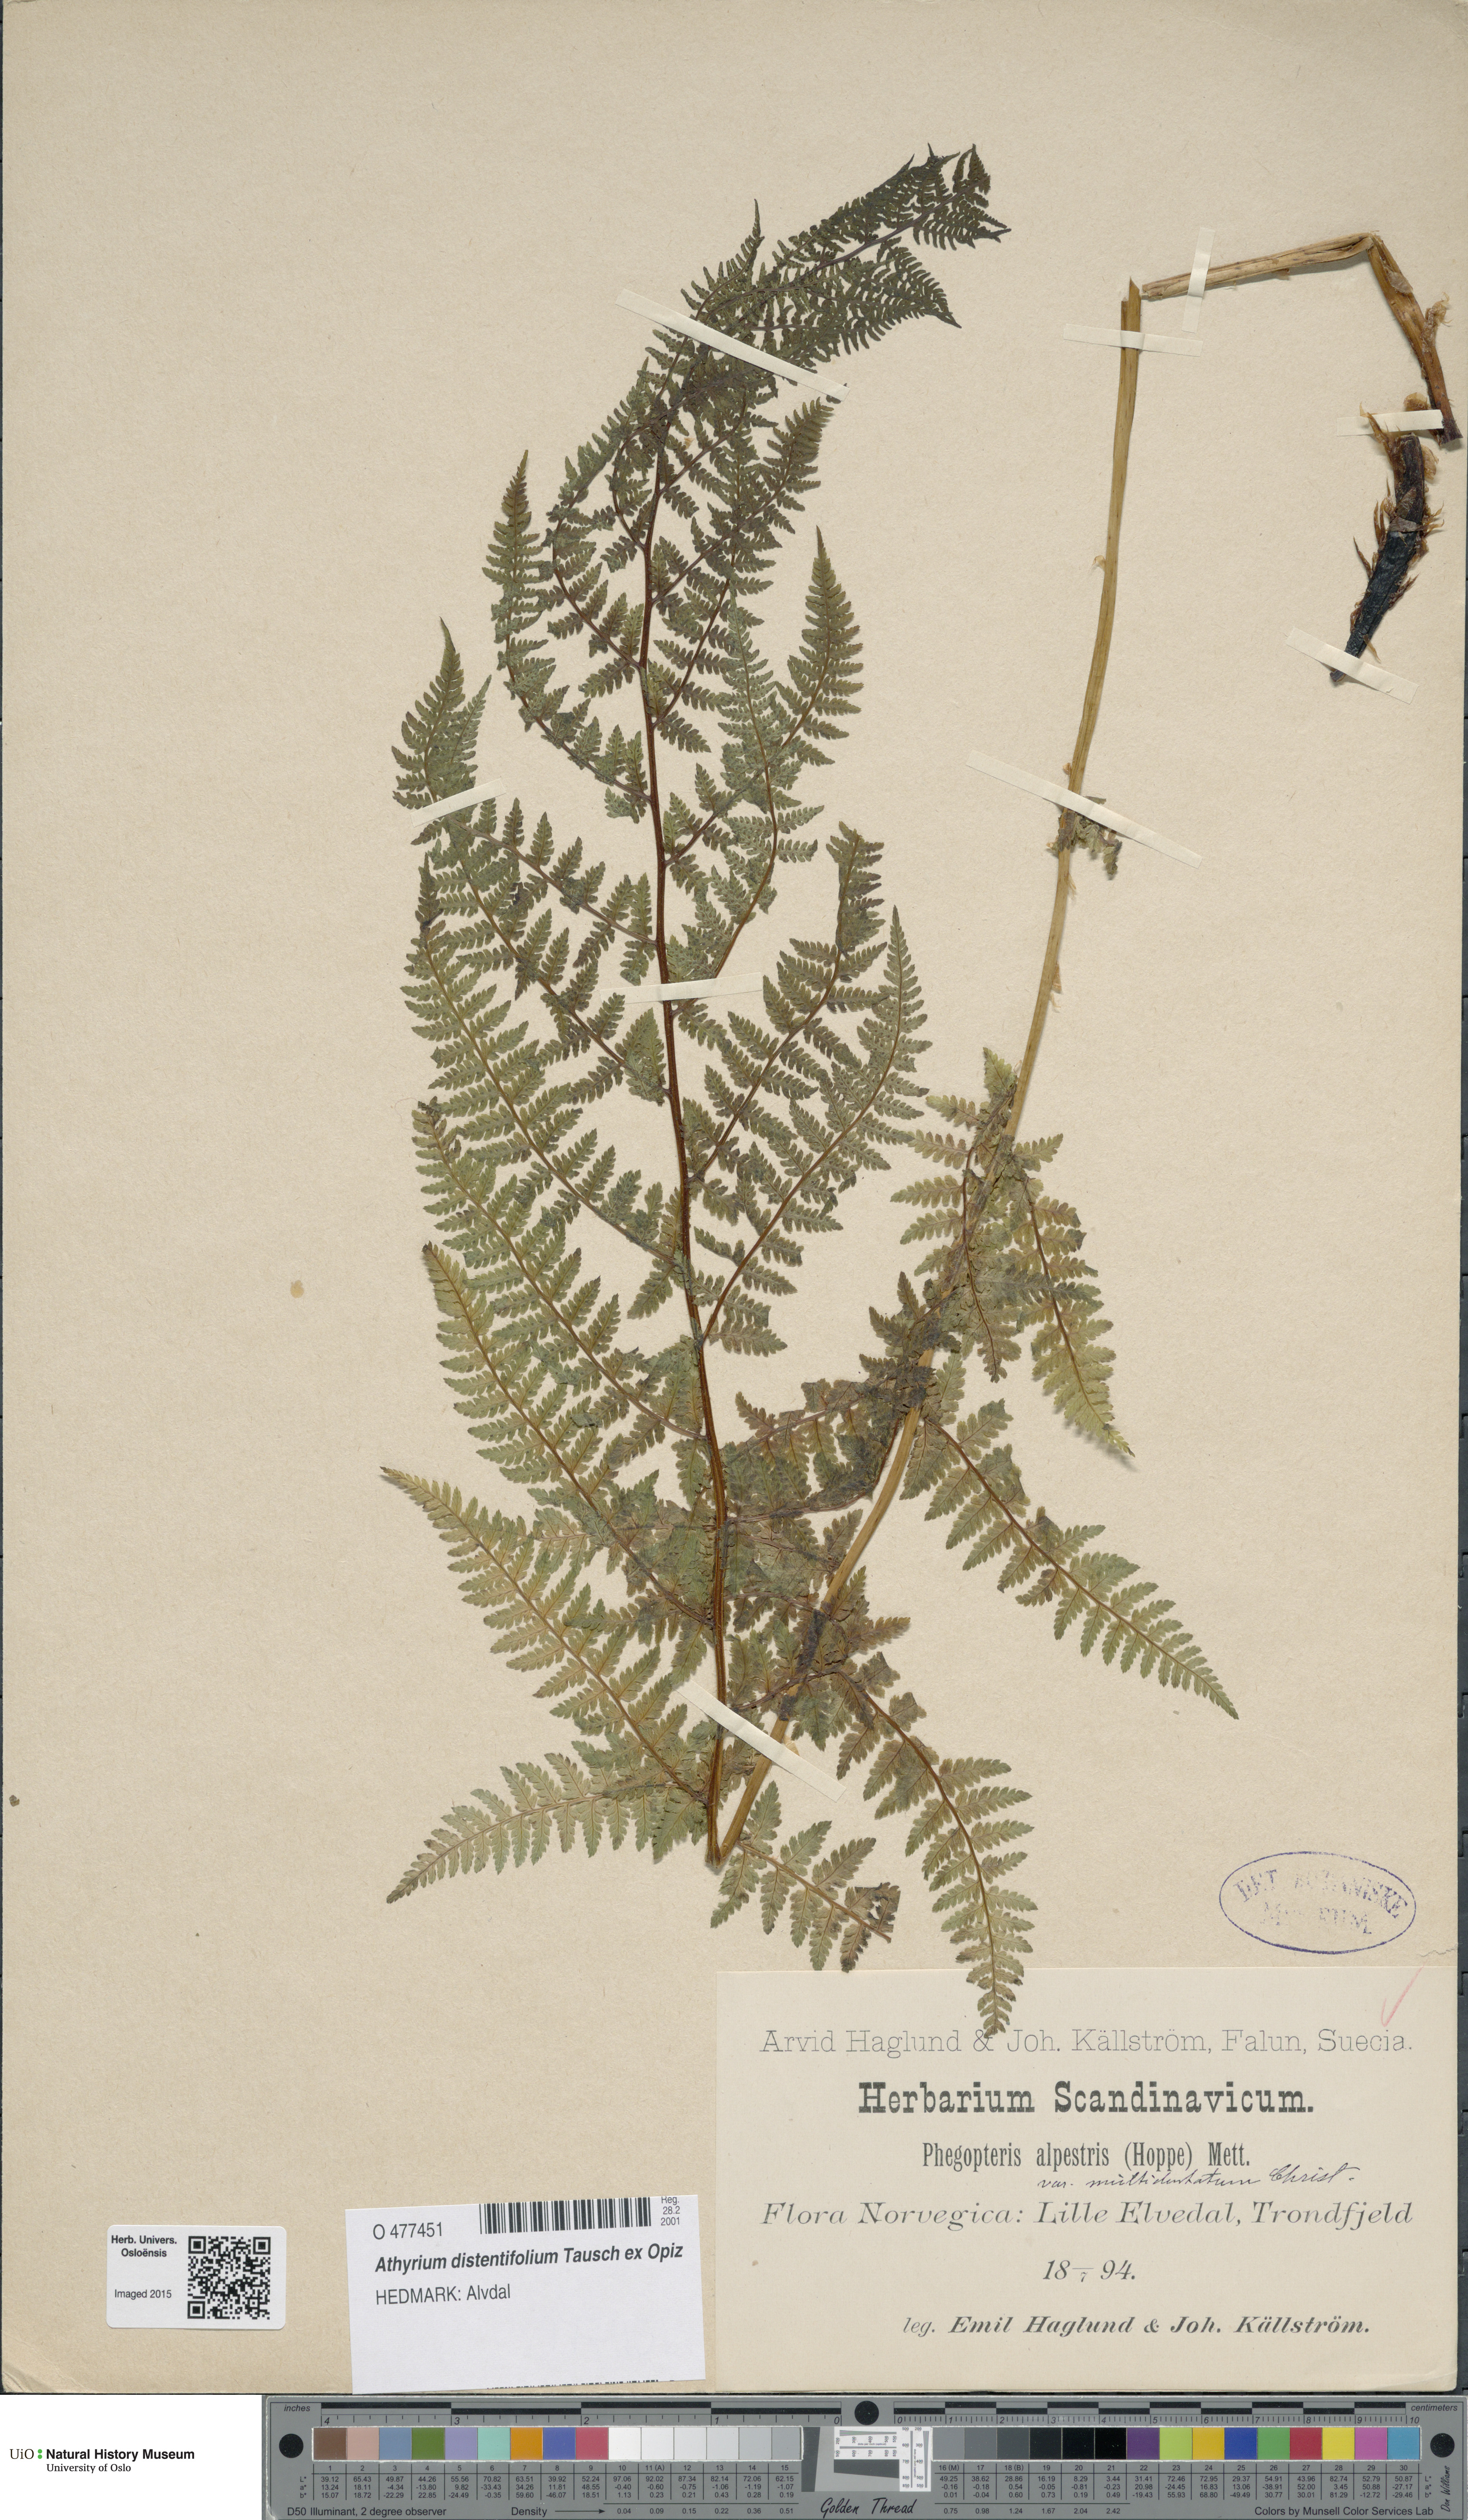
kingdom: Plantae
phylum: Tracheophyta
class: Polypodiopsida
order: Polypodiales
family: Athyriaceae
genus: Pseudathyrium
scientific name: Pseudathyrium alpestre
